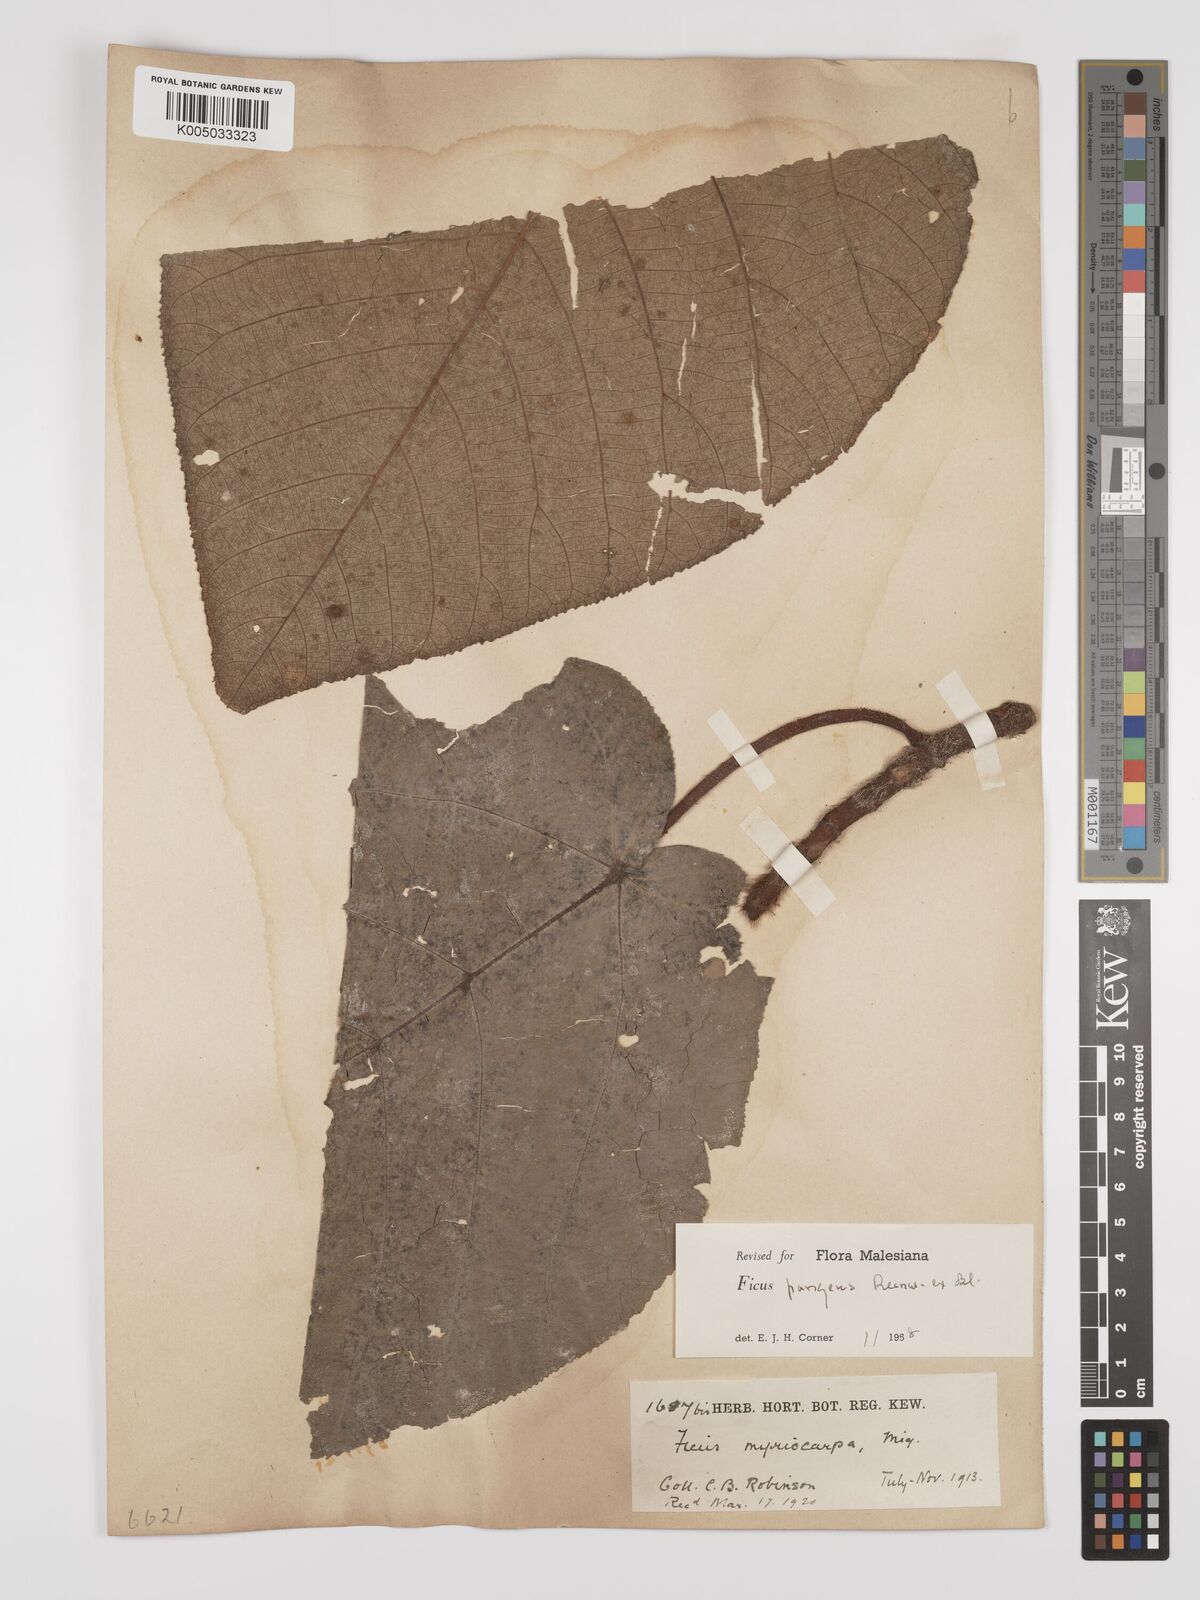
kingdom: Plantae
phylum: Tracheophyta
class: Magnoliopsida
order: Rosales
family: Moraceae
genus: Ficus
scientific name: Ficus pungens
